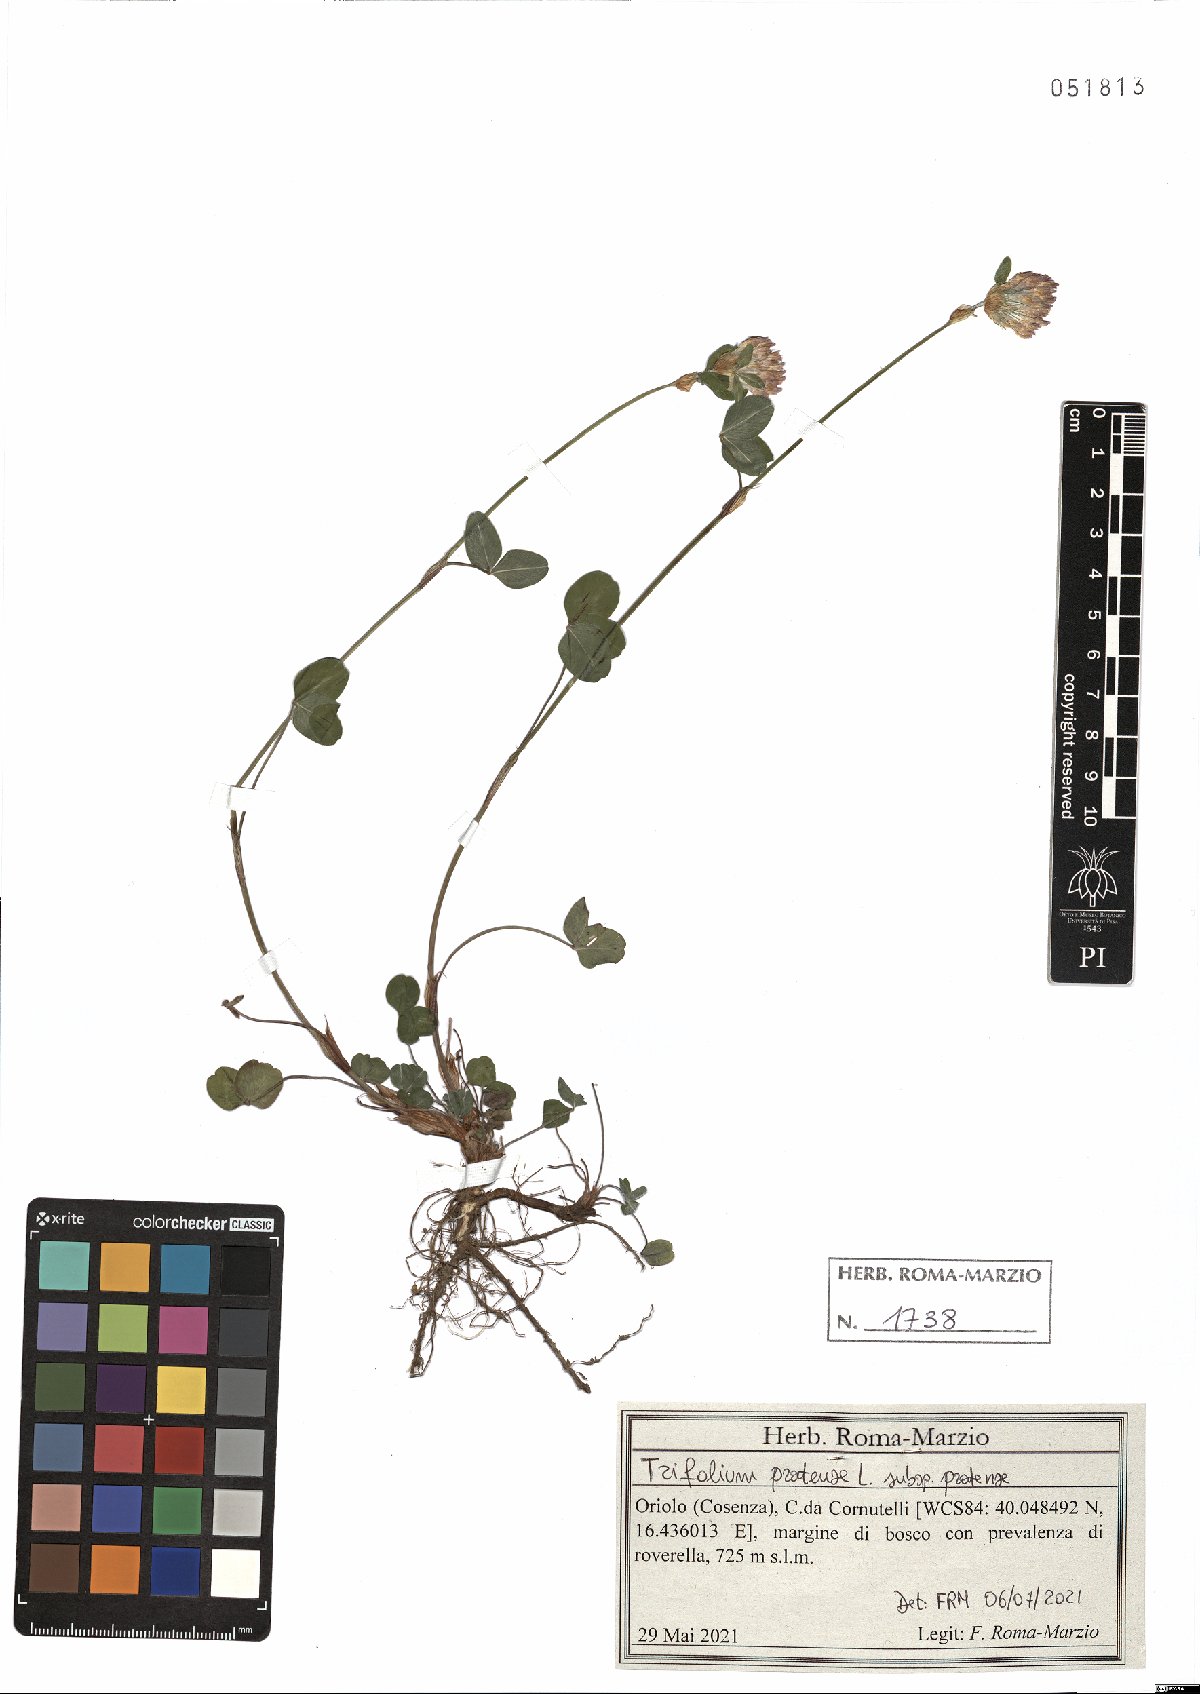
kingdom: Plantae
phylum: Tracheophyta
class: Magnoliopsida
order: Fabales
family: Fabaceae
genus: Trifolium
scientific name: Trifolium pratense
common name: Red clover
